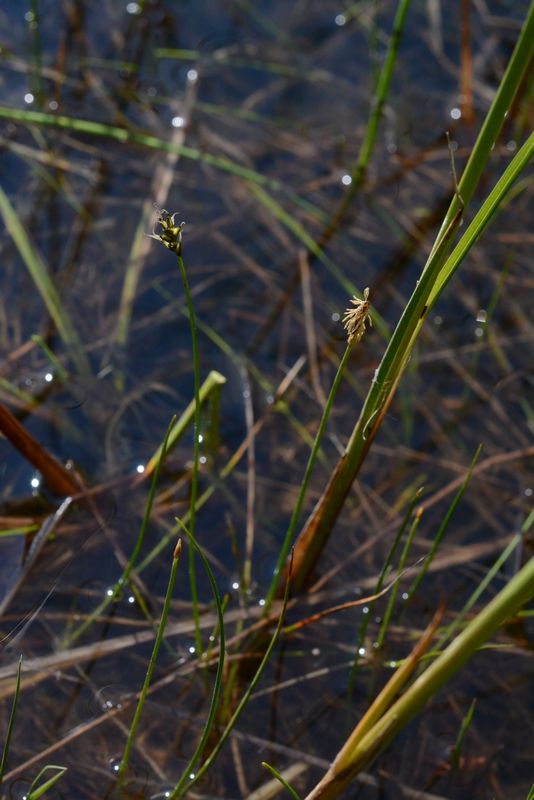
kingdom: Plantae
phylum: Tracheophyta
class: Liliopsida
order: Poales
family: Cyperaceae
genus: Carex
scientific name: Carex dioica
